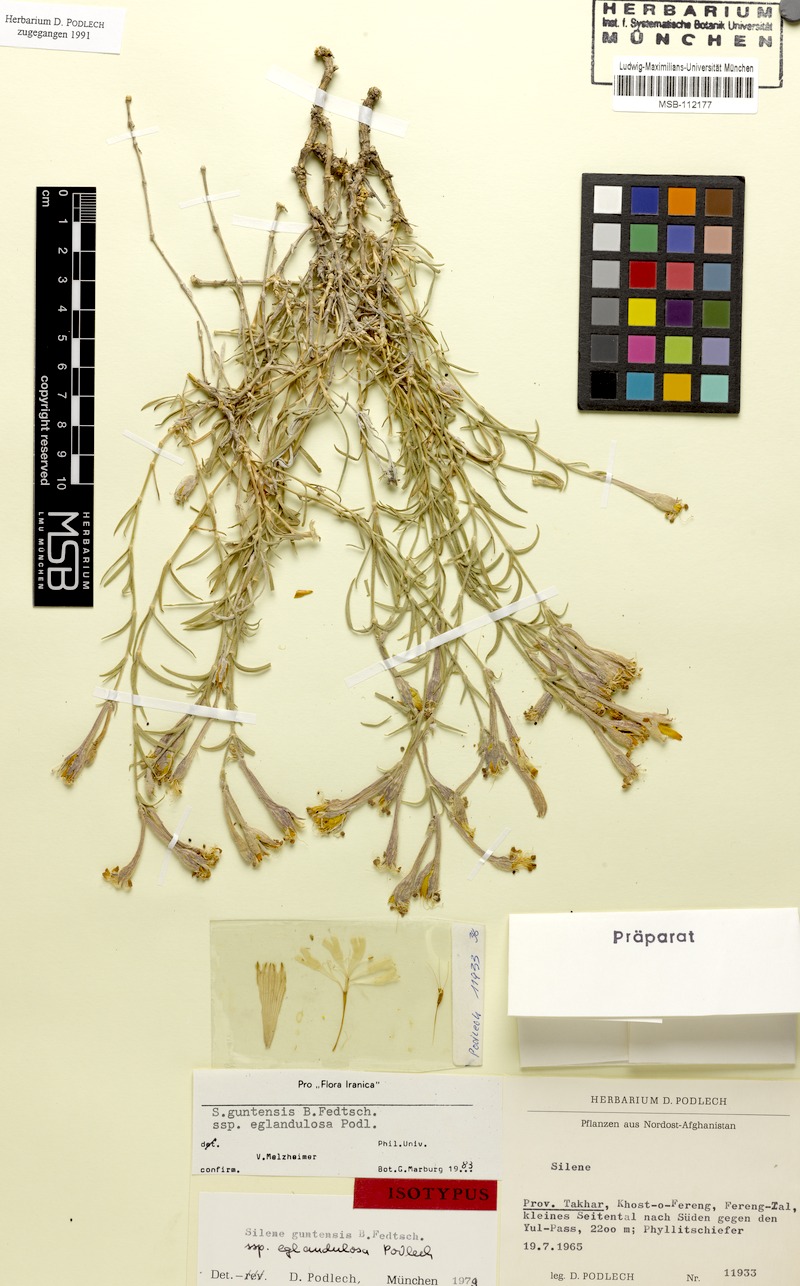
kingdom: Plantae
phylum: Tracheophyta
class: Magnoliopsida
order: Caryophyllales
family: Caryophyllaceae
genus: Silene
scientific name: Silene kuschakewiczii
